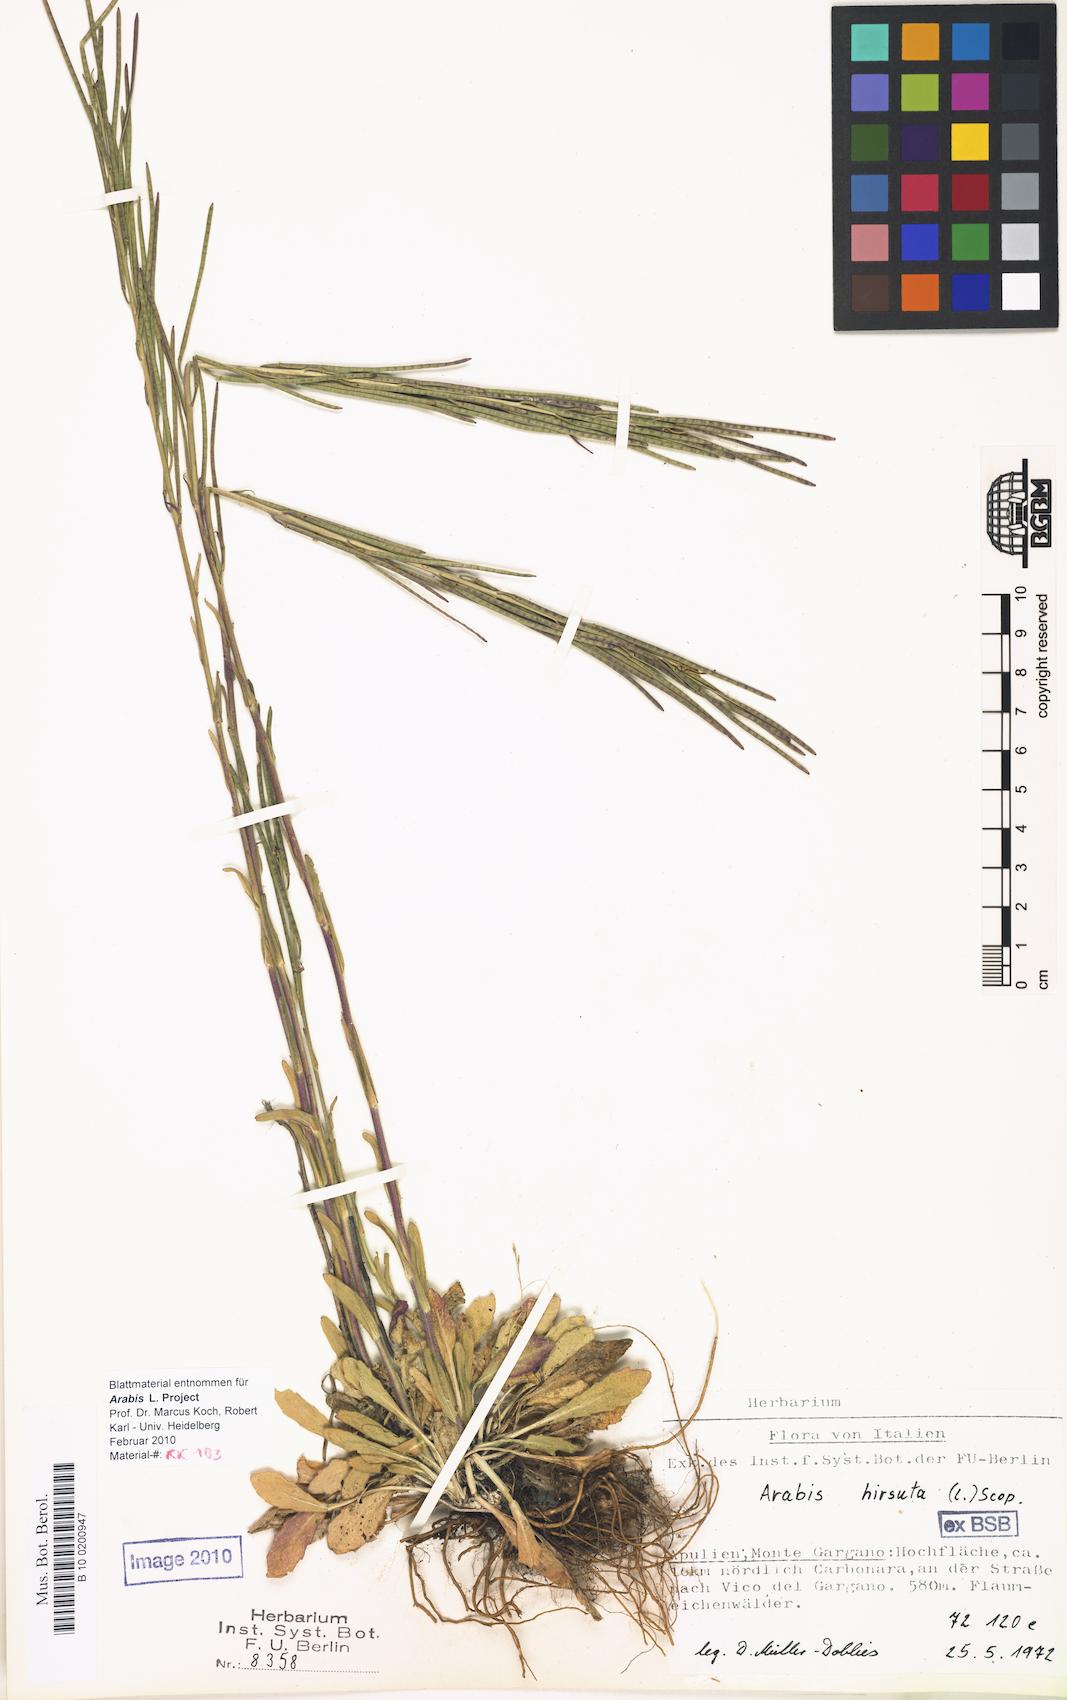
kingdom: Plantae
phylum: Tracheophyta
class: Magnoliopsida
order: Brassicales
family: Brassicaceae
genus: Arabis
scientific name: Arabis hirsuta
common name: Hairy rock-cress
